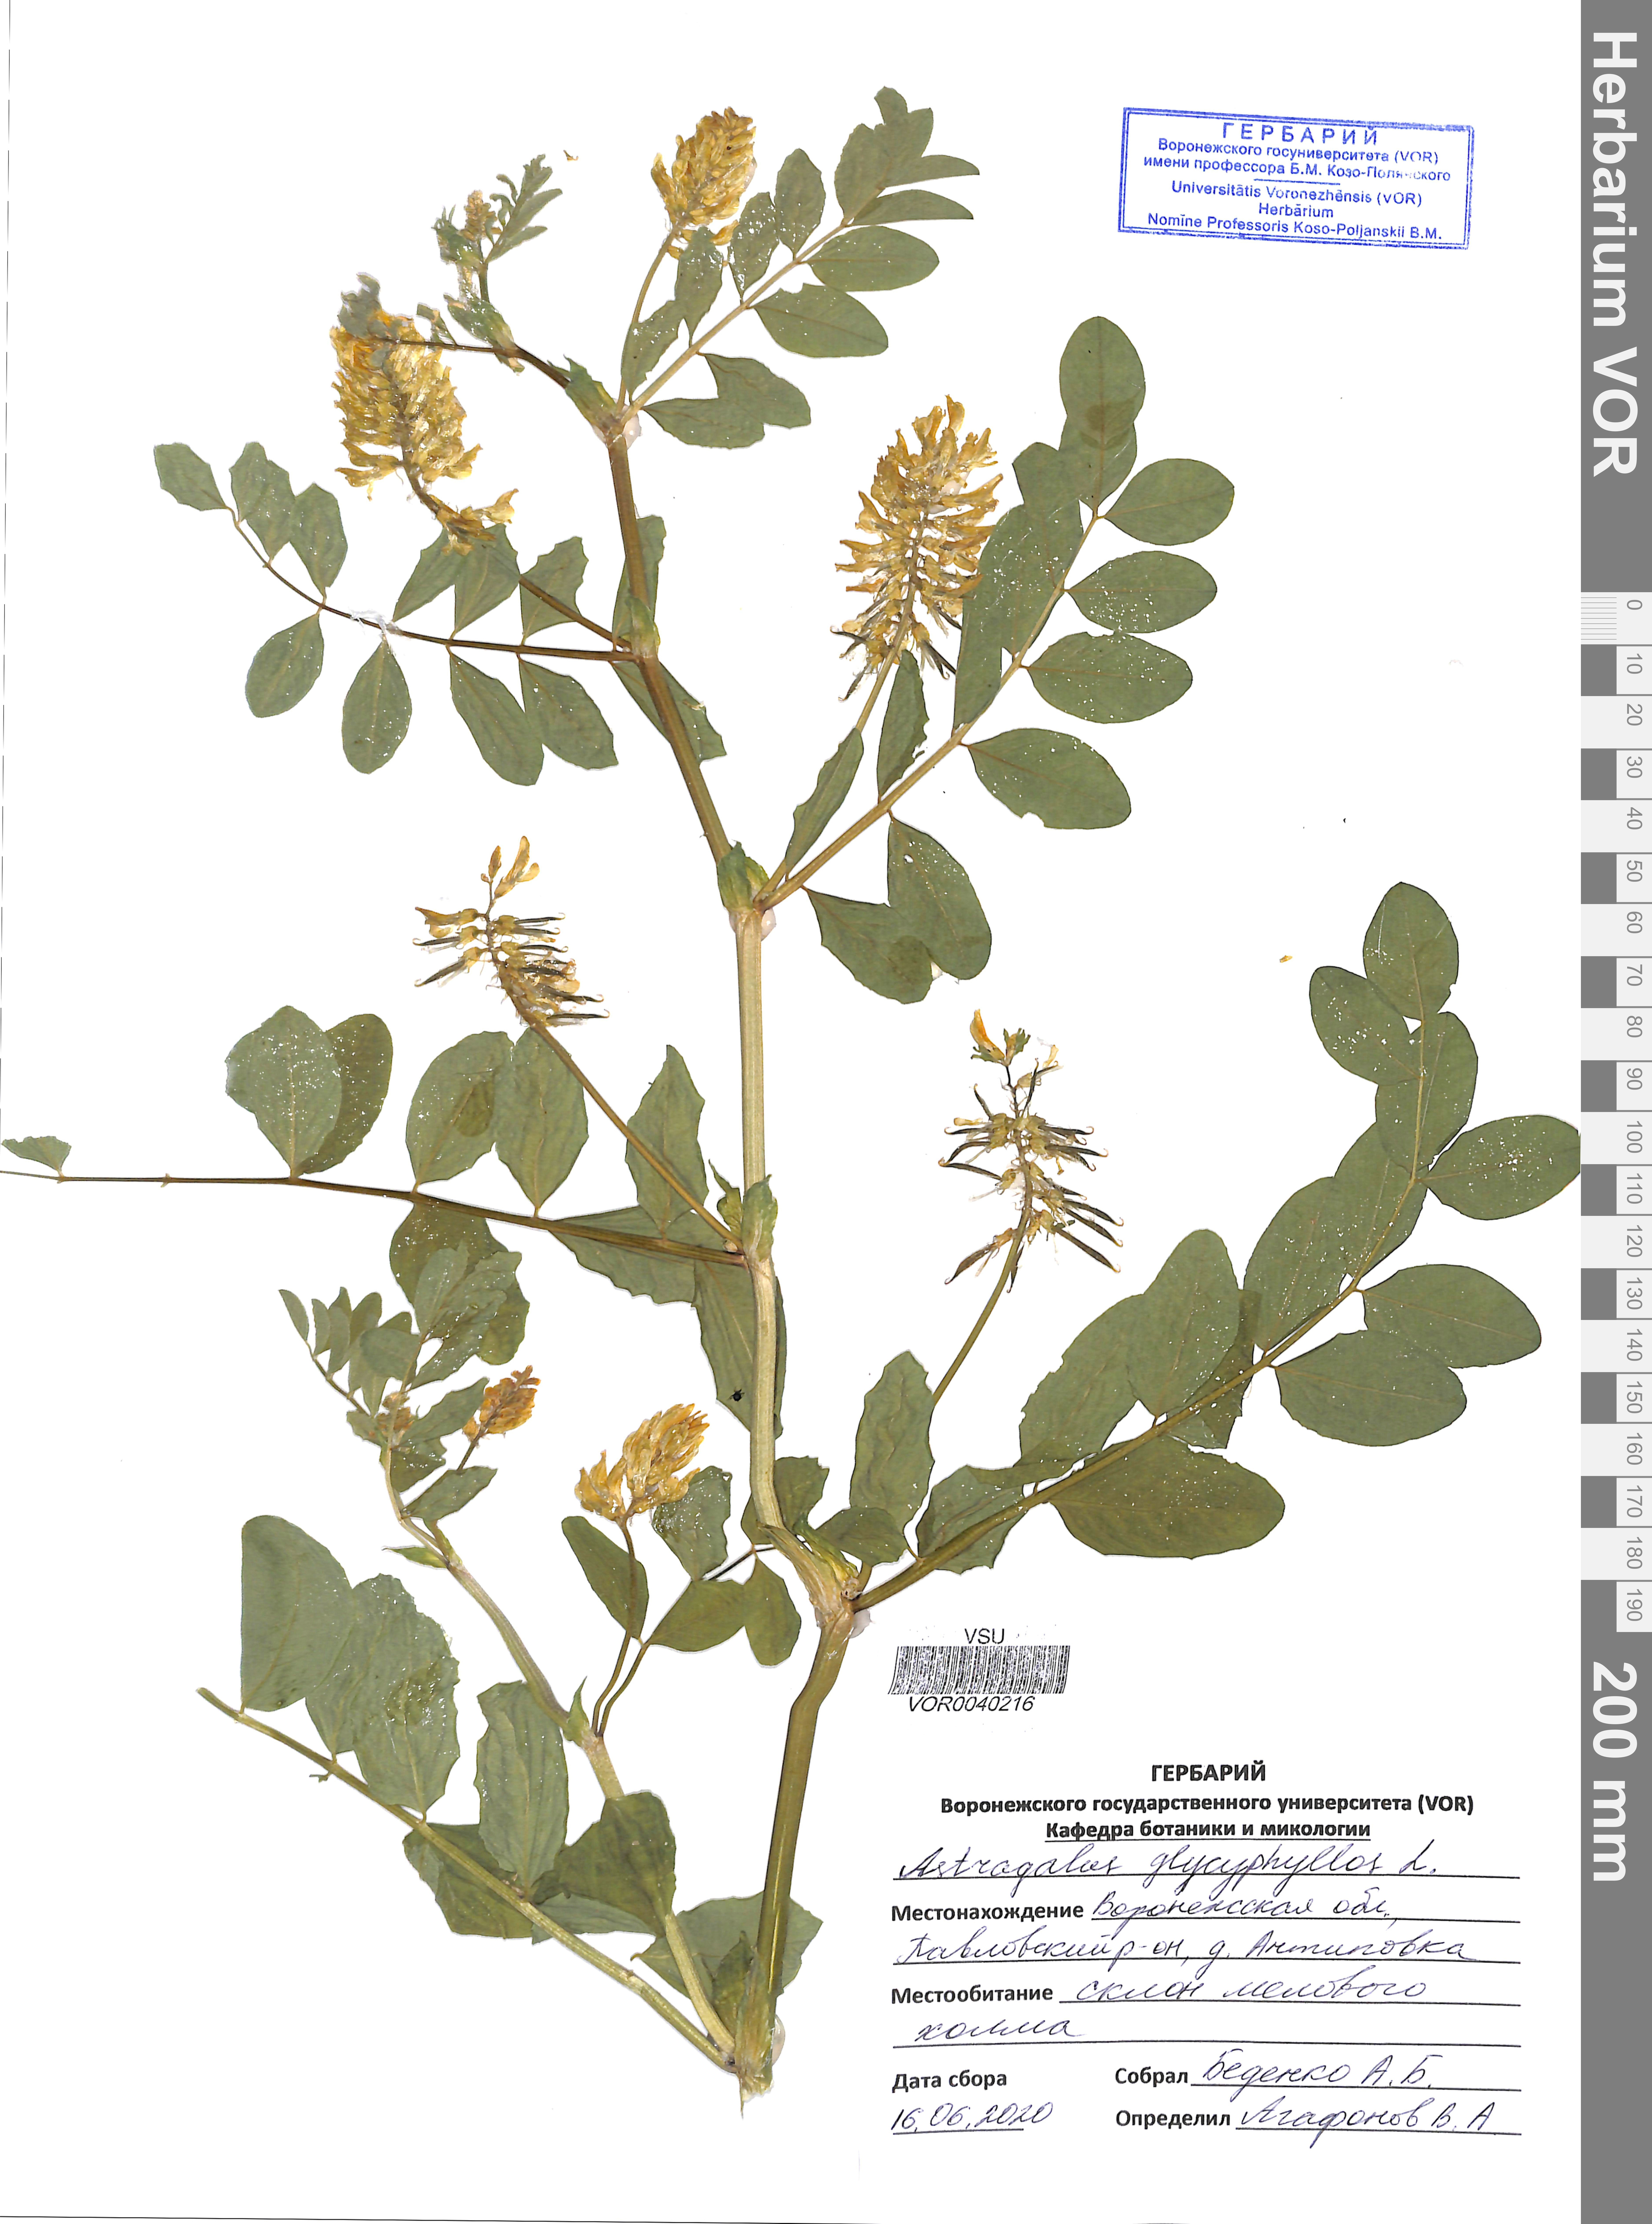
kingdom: Plantae
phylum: Tracheophyta
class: Magnoliopsida
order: Fabales
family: Fabaceae
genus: Astragalus
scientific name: Astragalus glycyphyllos
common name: Wild liquorice
